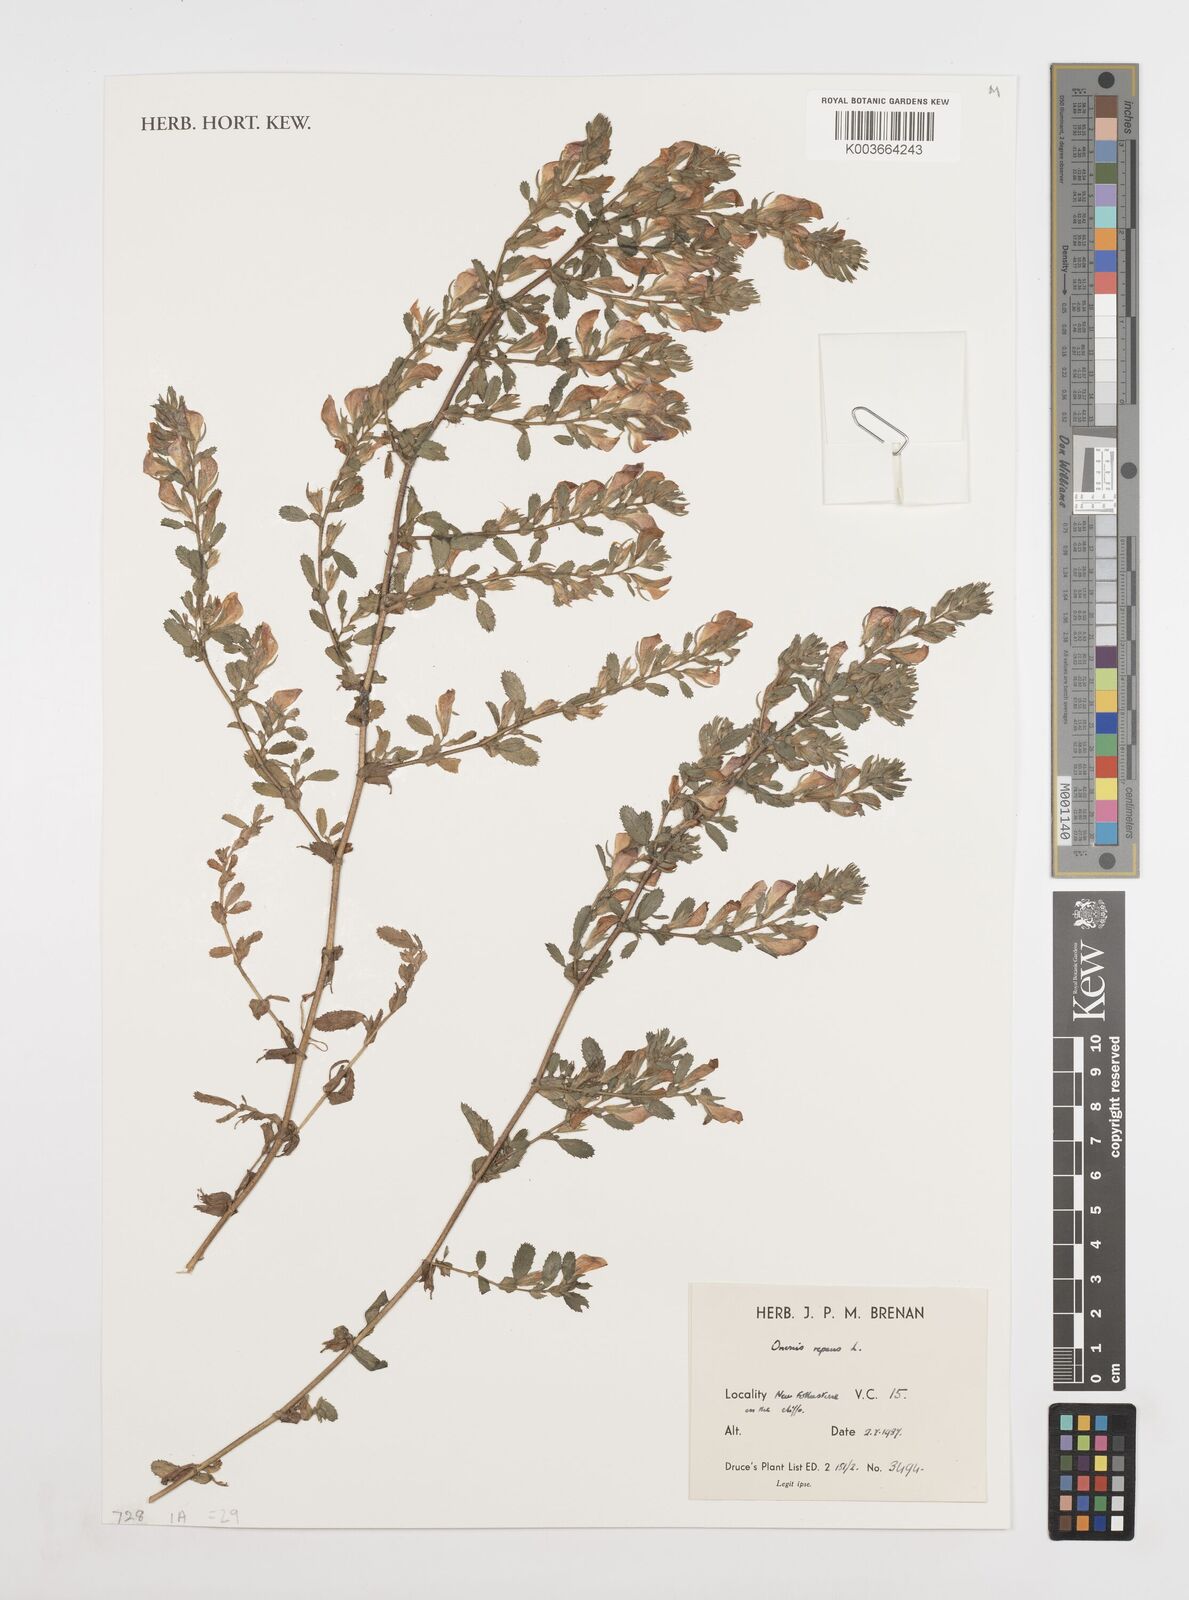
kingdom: Plantae
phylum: Tracheophyta
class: Magnoliopsida
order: Fabales
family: Fabaceae
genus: Ononis
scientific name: Ononis spinosa
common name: Spiny restharrow
